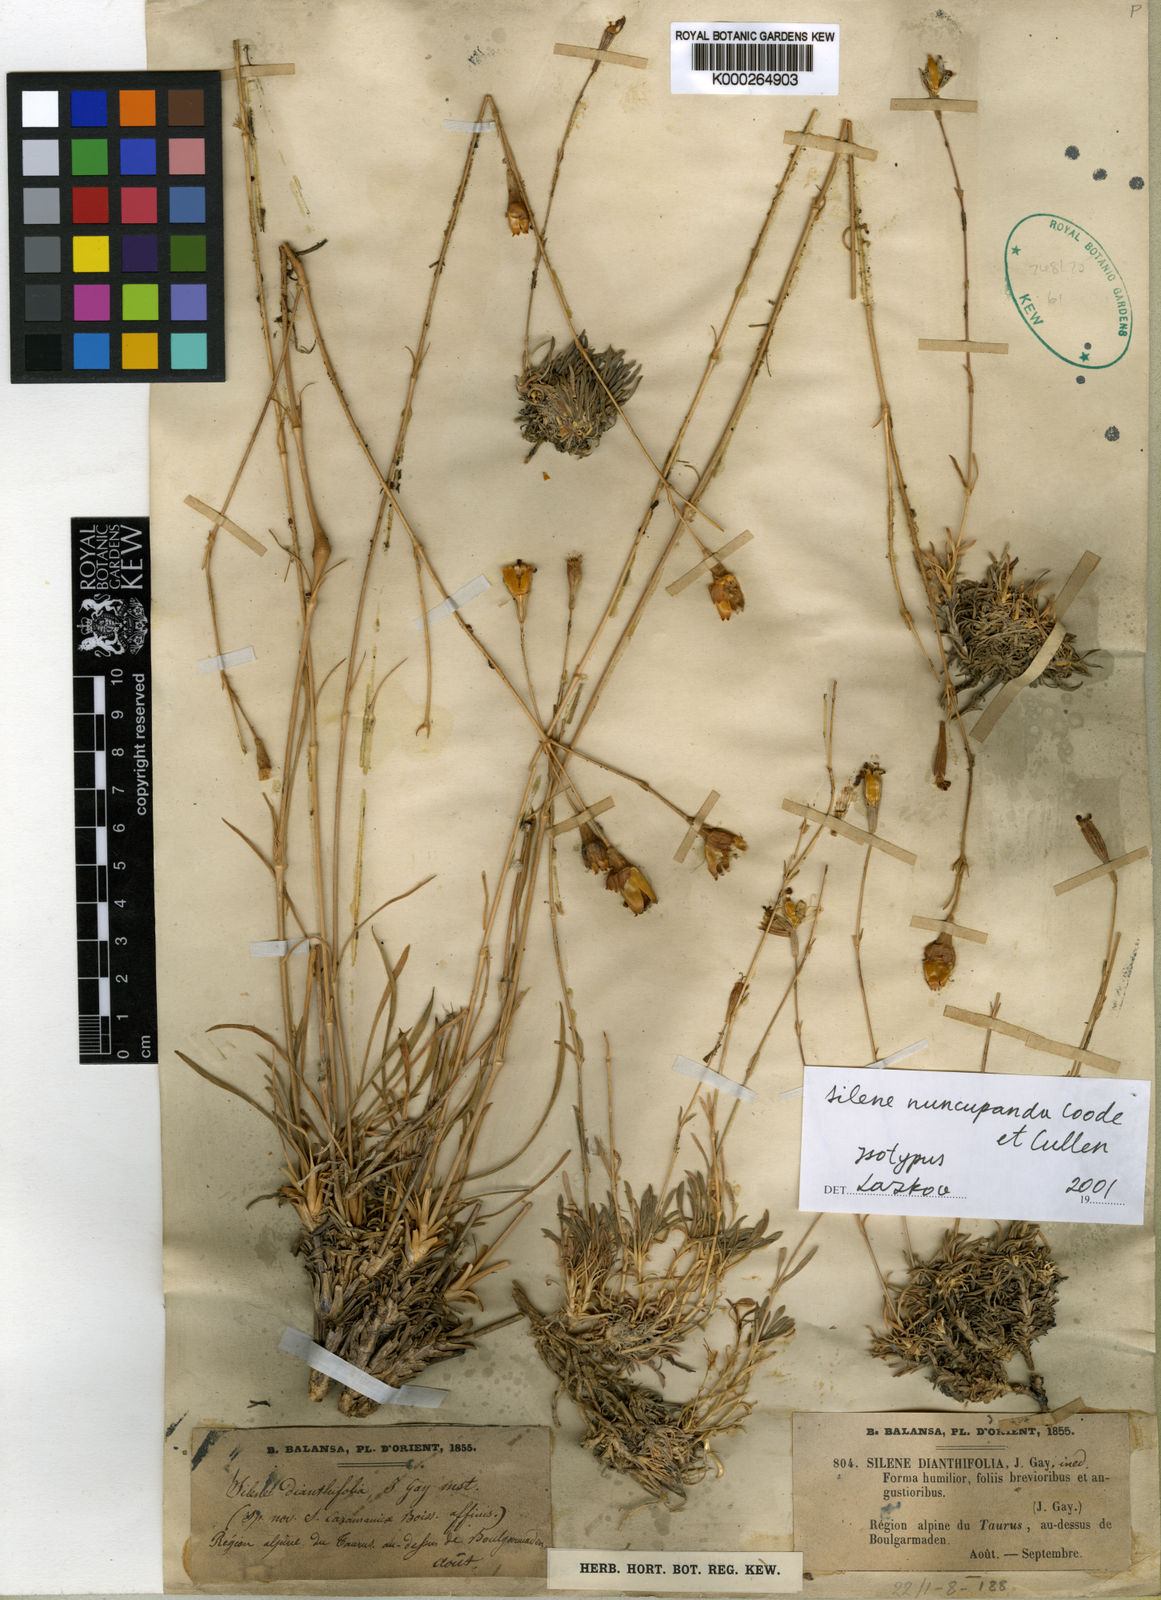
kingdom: Plantae
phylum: Tracheophyta
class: Magnoliopsida
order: Caryophyllales
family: Caryophyllaceae
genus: Silene
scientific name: Silene
